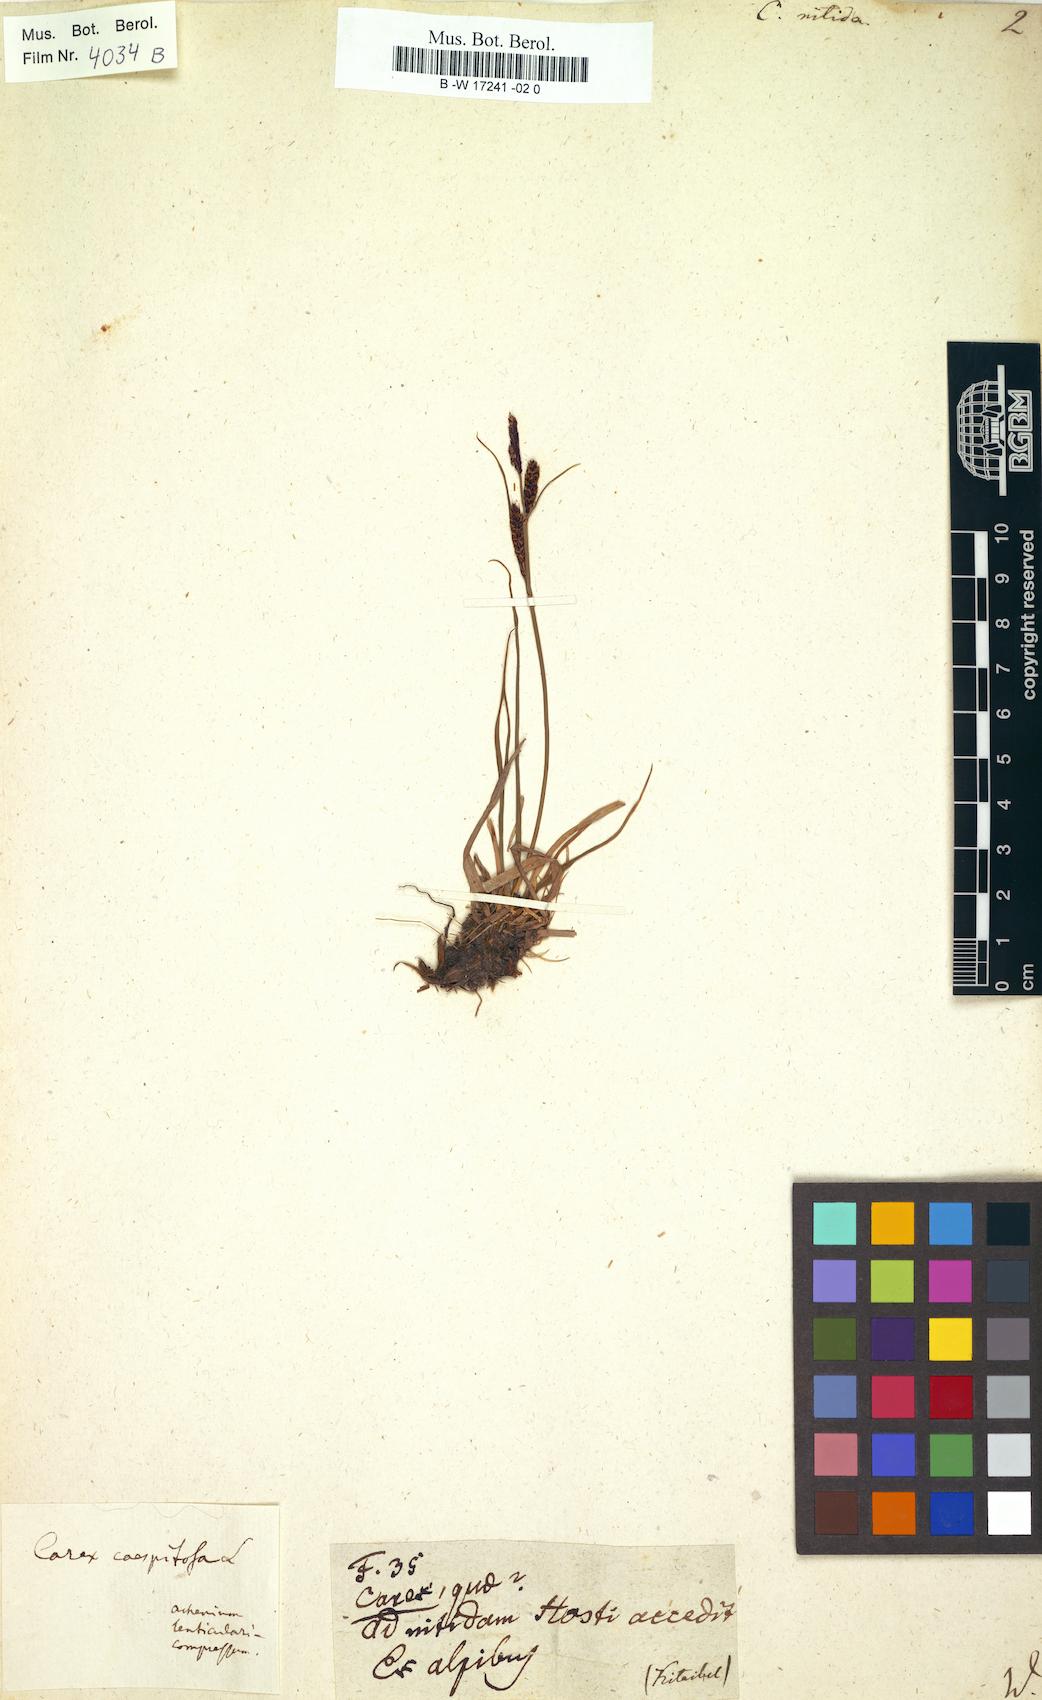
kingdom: Plantae
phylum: Tracheophyta
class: Liliopsida
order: Poales
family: Cyperaceae
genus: Carex
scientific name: Carex mucronata
